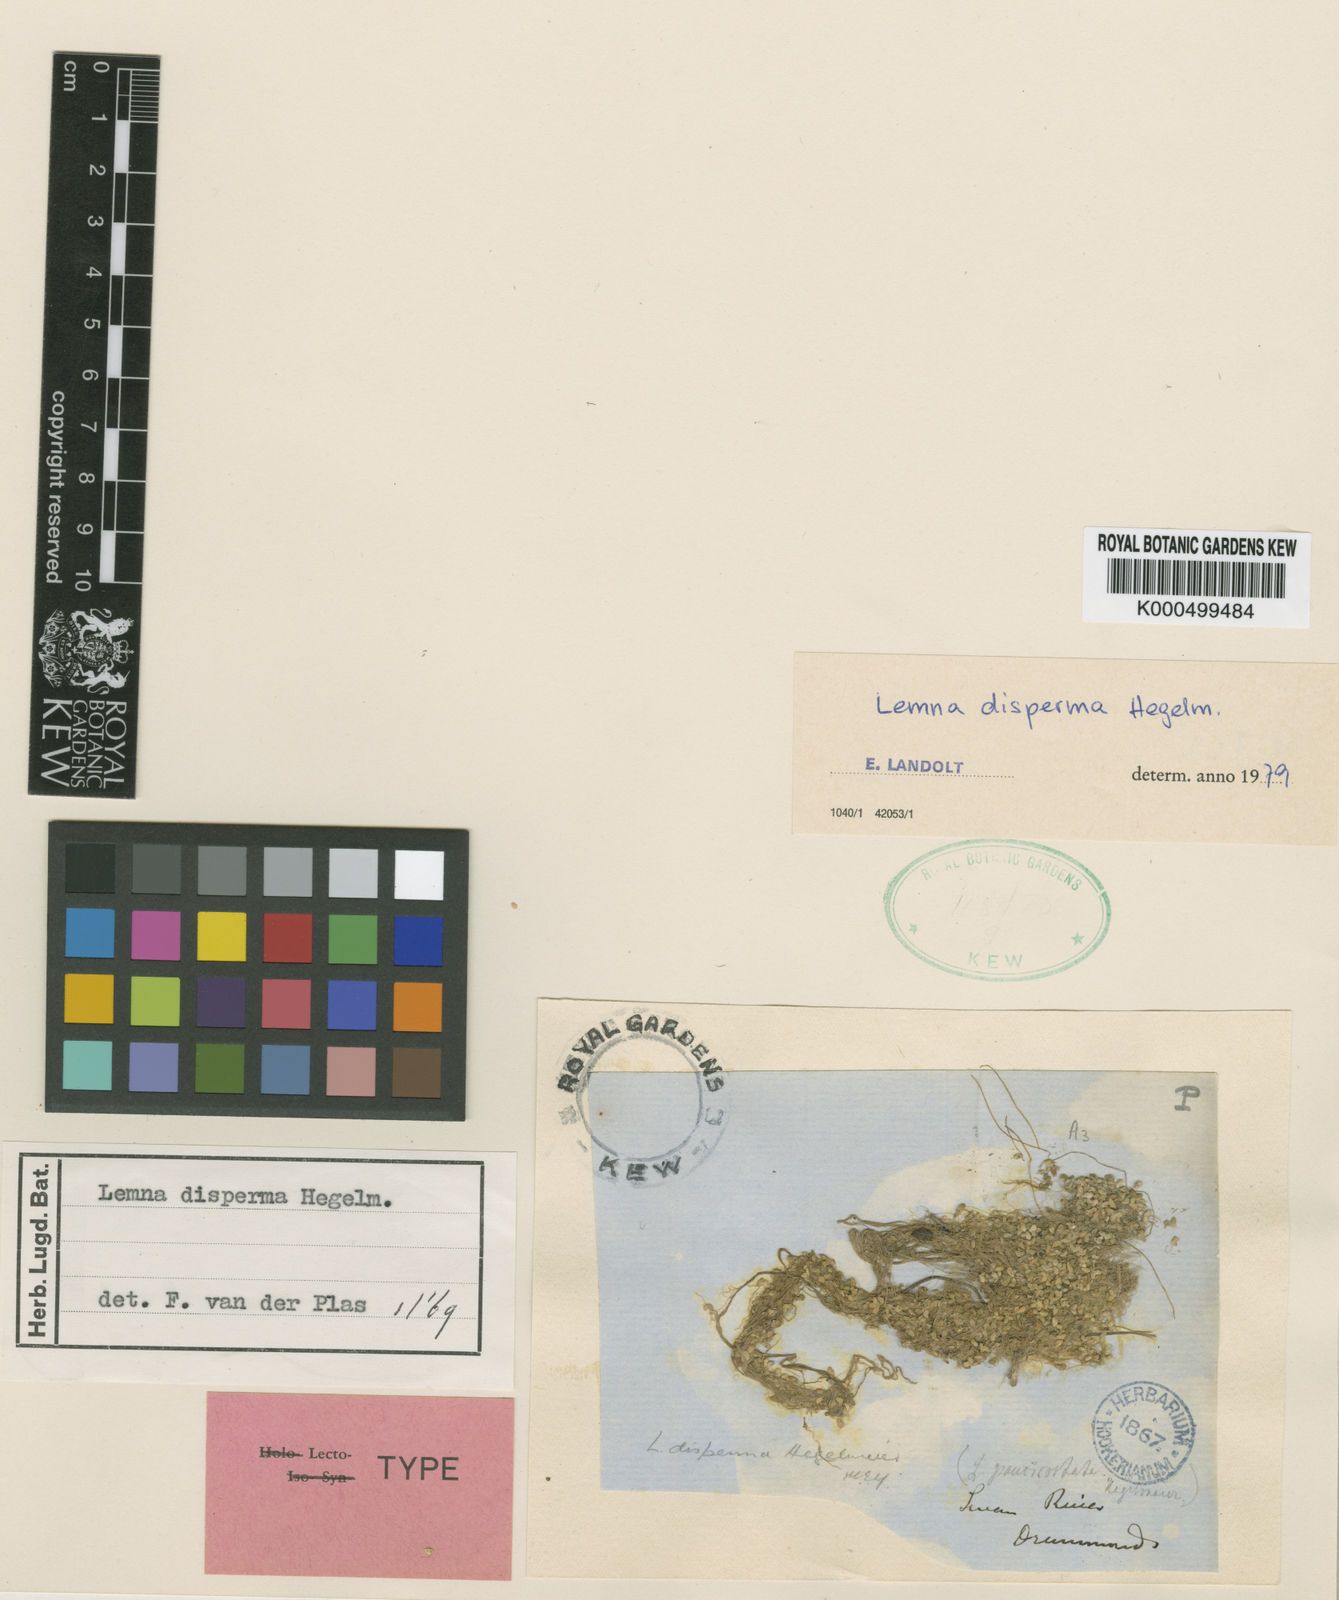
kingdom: Plantae
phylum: Tracheophyta
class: Liliopsida
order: Alismatales
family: Araceae
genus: Lemna
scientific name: Lemna disperma
